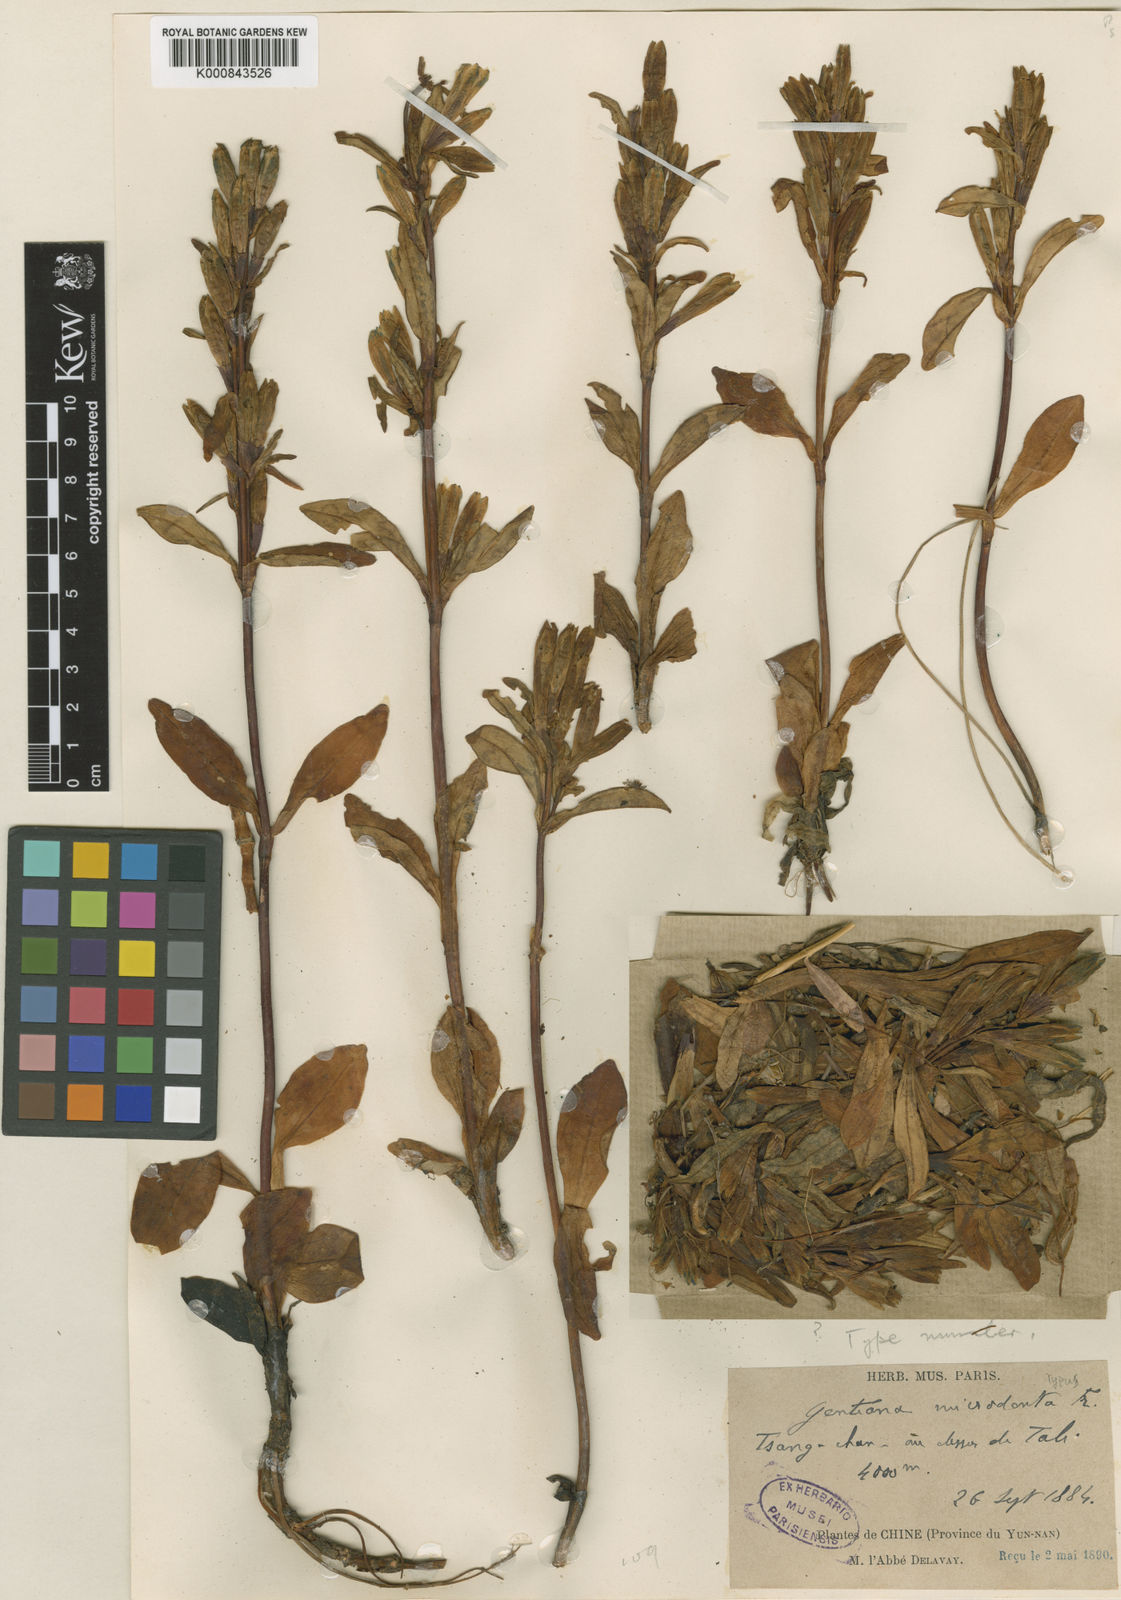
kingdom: Plantae
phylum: Tracheophyta
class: Magnoliopsida
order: Gentianales
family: Gentianaceae
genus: Gentiana
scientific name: Gentiana
